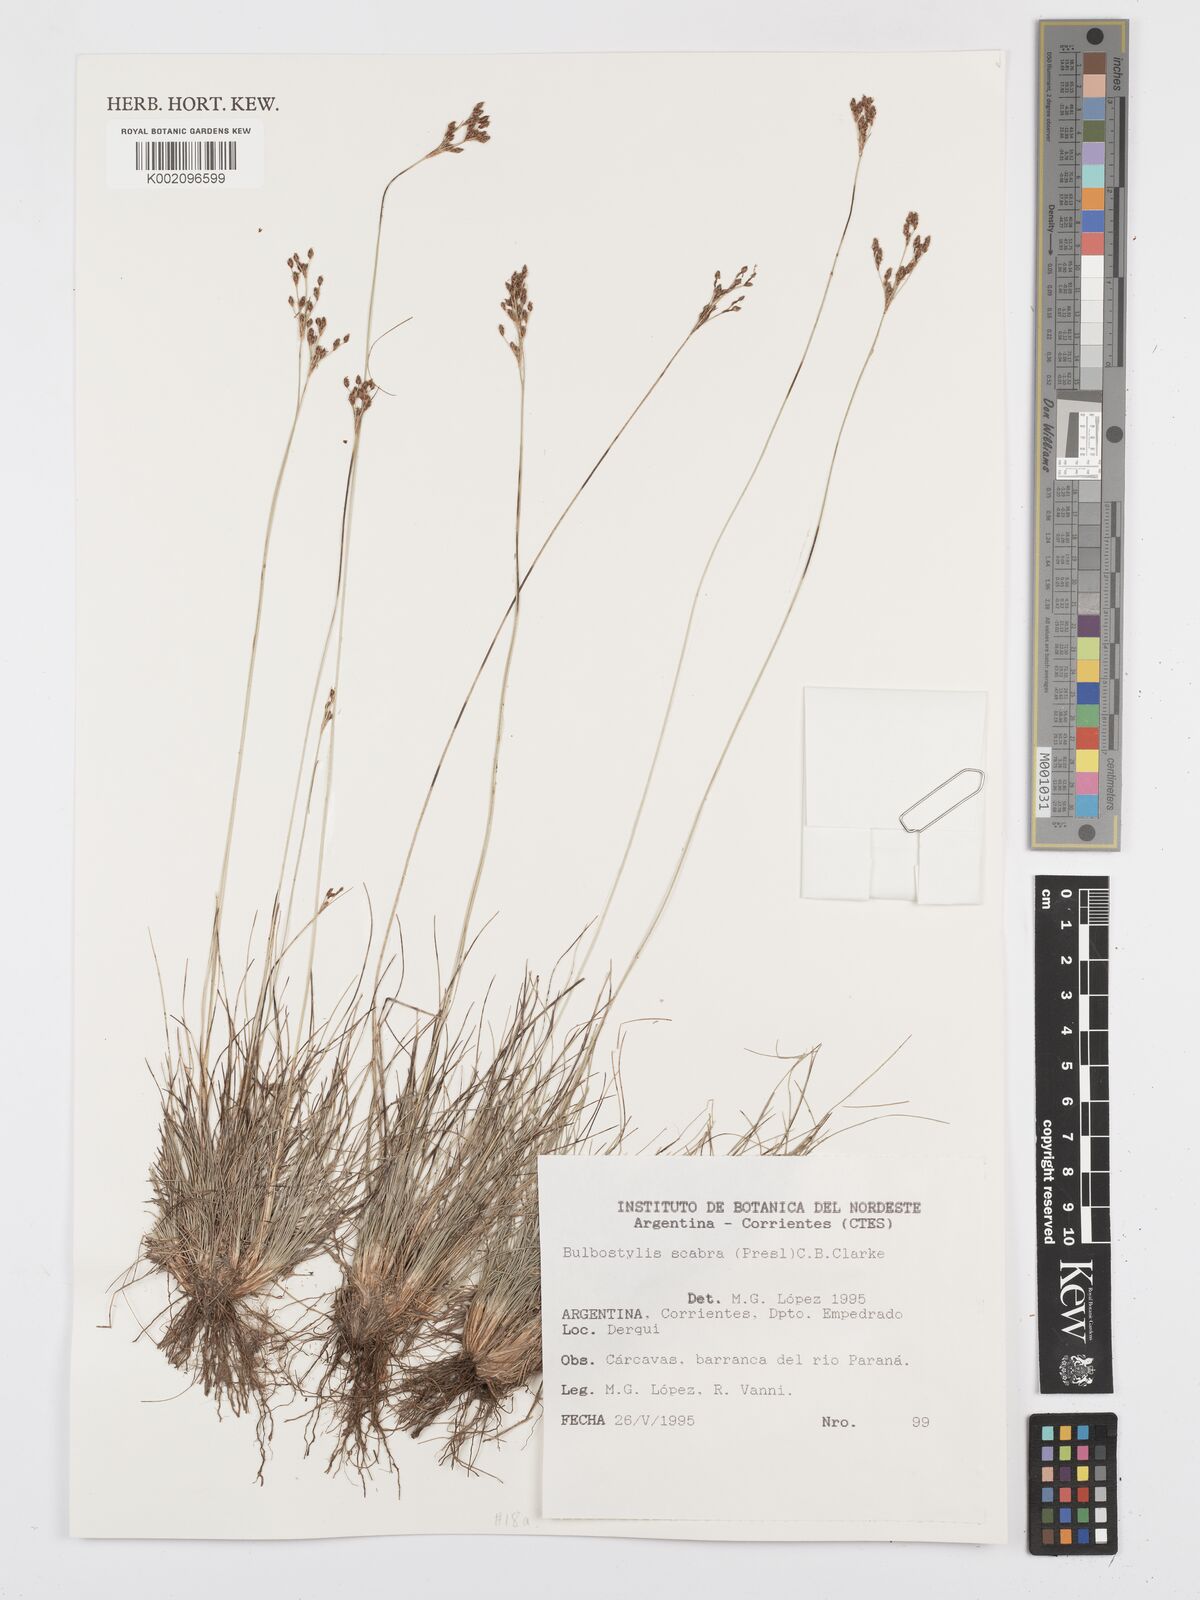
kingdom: Plantae
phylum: Tracheophyta
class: Liliopsida
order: Poales
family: Cyperaceae
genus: Bulbostylis
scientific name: Bulbostylis scabra
